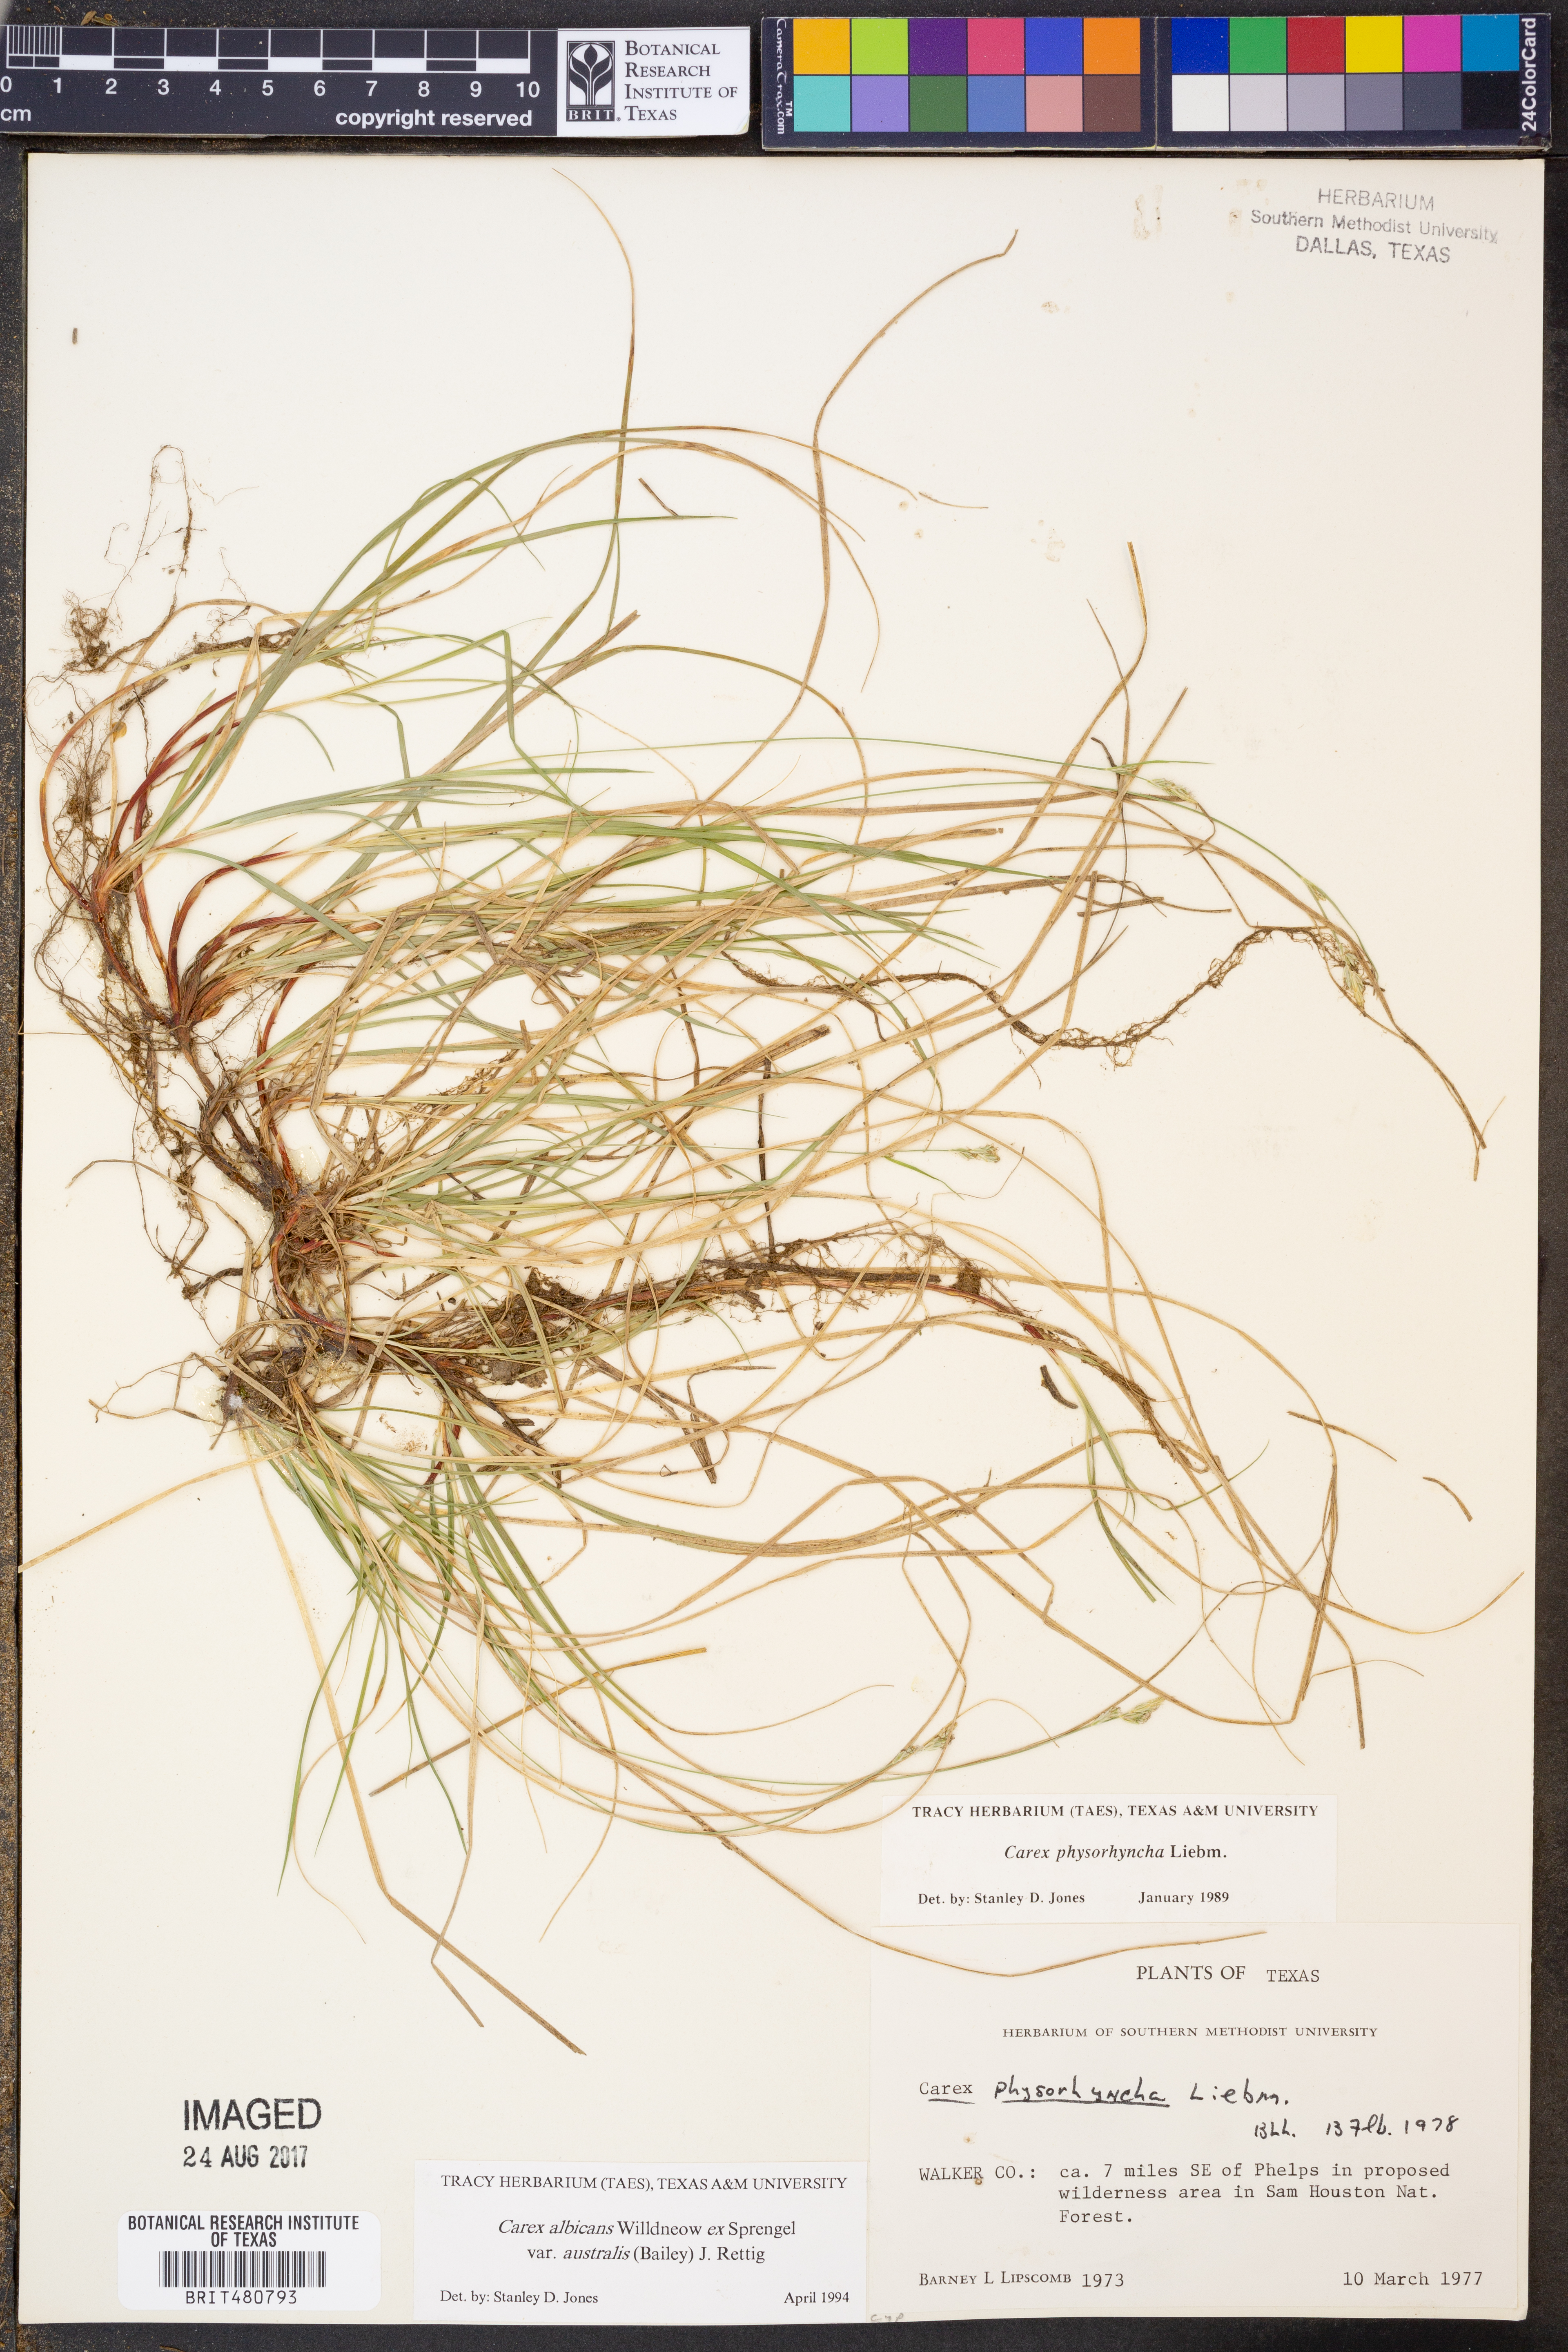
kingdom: Plantae
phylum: Tracheophyta
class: Liliopsida
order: Poales
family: Cyperaceae
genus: Carex
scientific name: Carex albicans
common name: Bellow-beaked sedge
